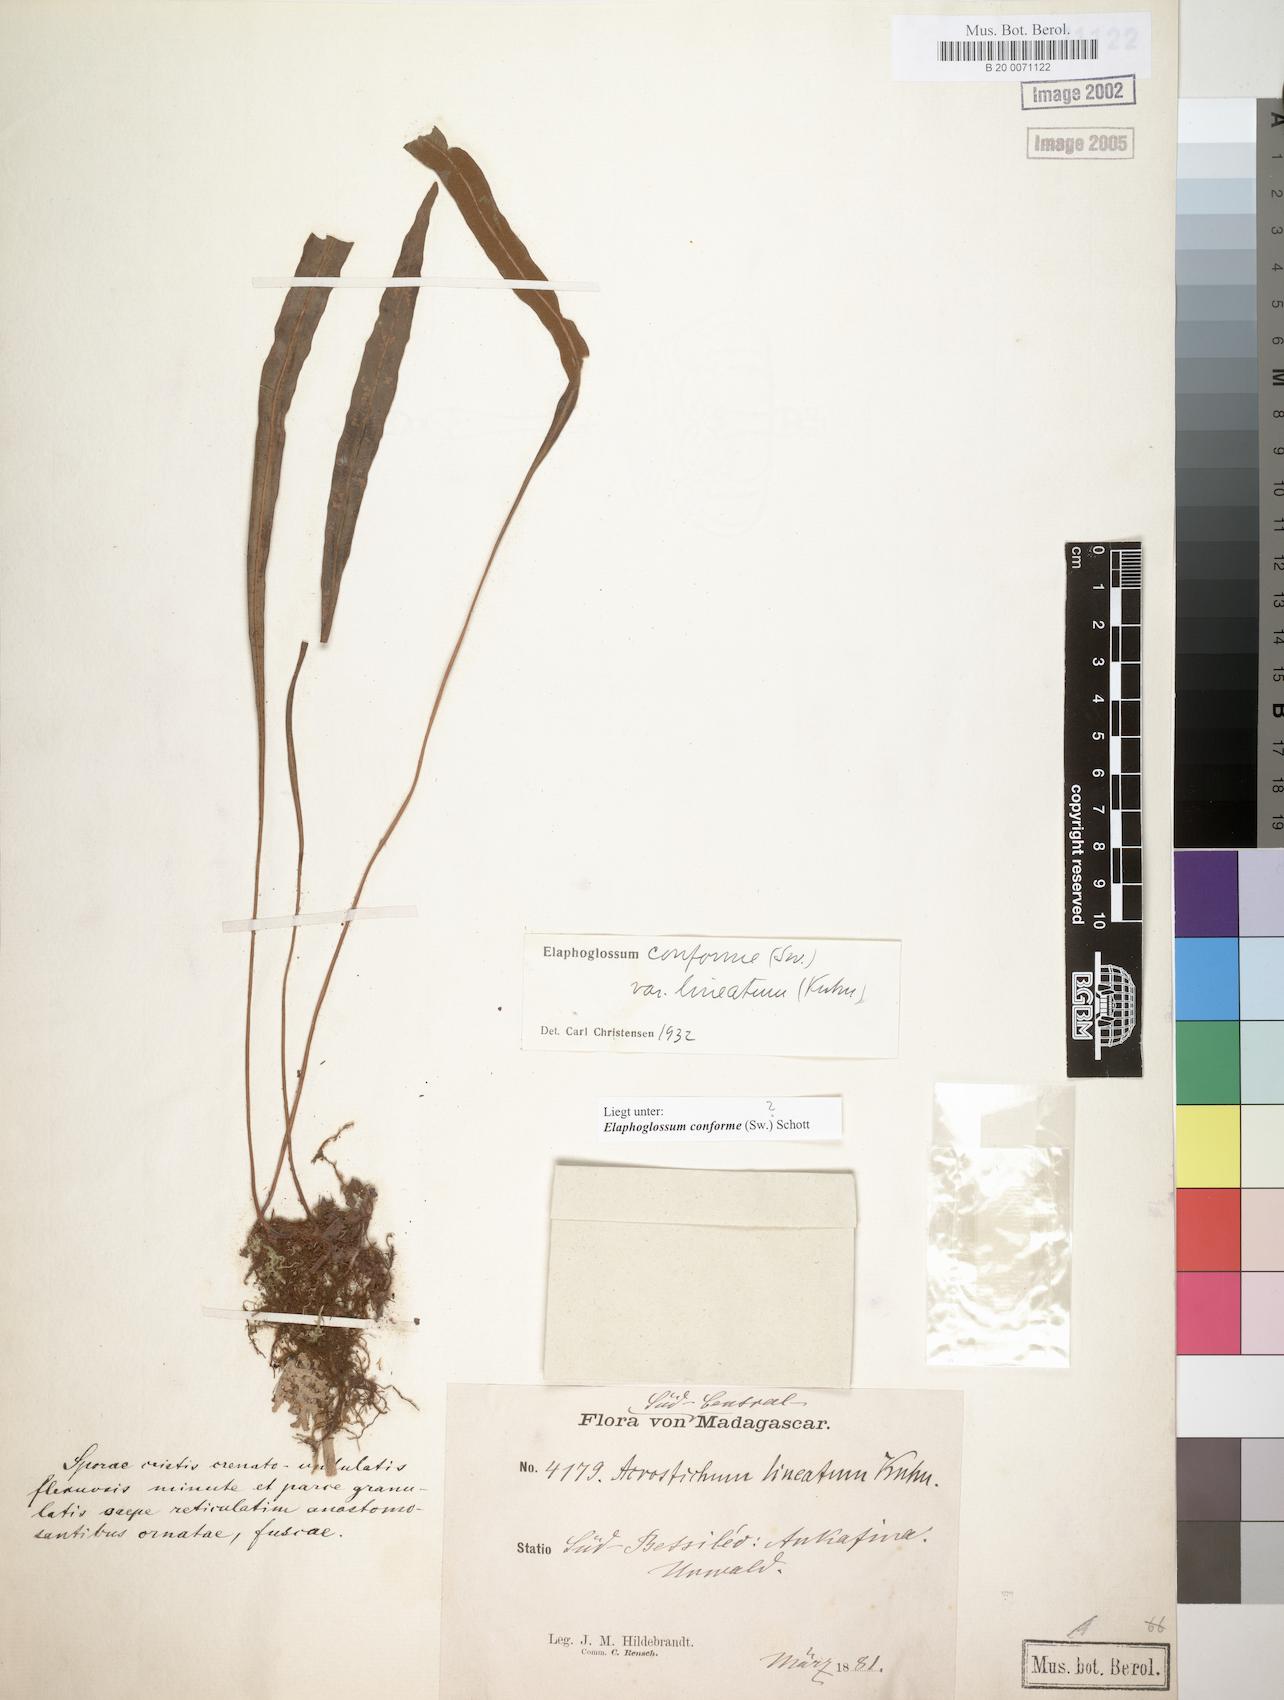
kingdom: Plantae
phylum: Tracheophyta
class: Polypodiopsida
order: Polypodiales
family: Dryopteridaceae
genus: Elaphoglossum
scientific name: Elaphoglossum conforme
